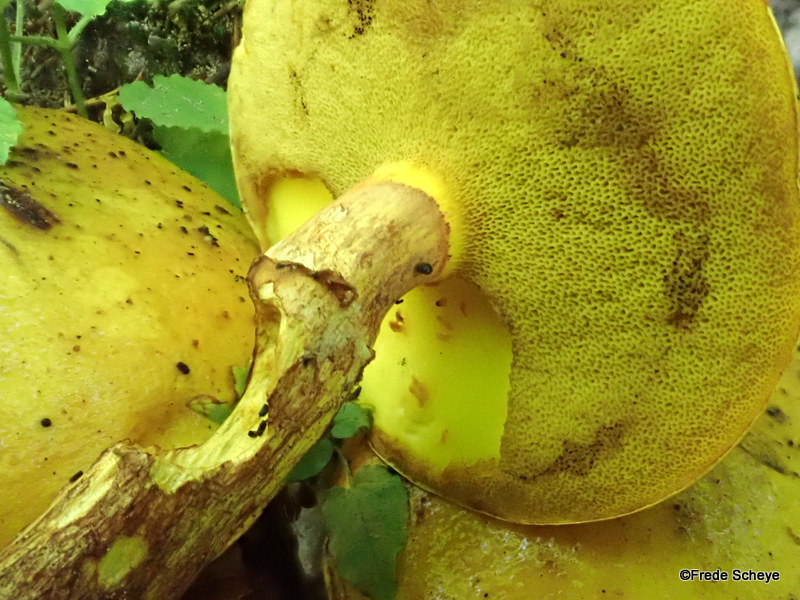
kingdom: Fungi
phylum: Basidiomycota
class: Agaricomycetes
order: Boletales
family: Suillaceae
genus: Suillus
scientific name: Suillus grevillei
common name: lærke-slimrørhat
